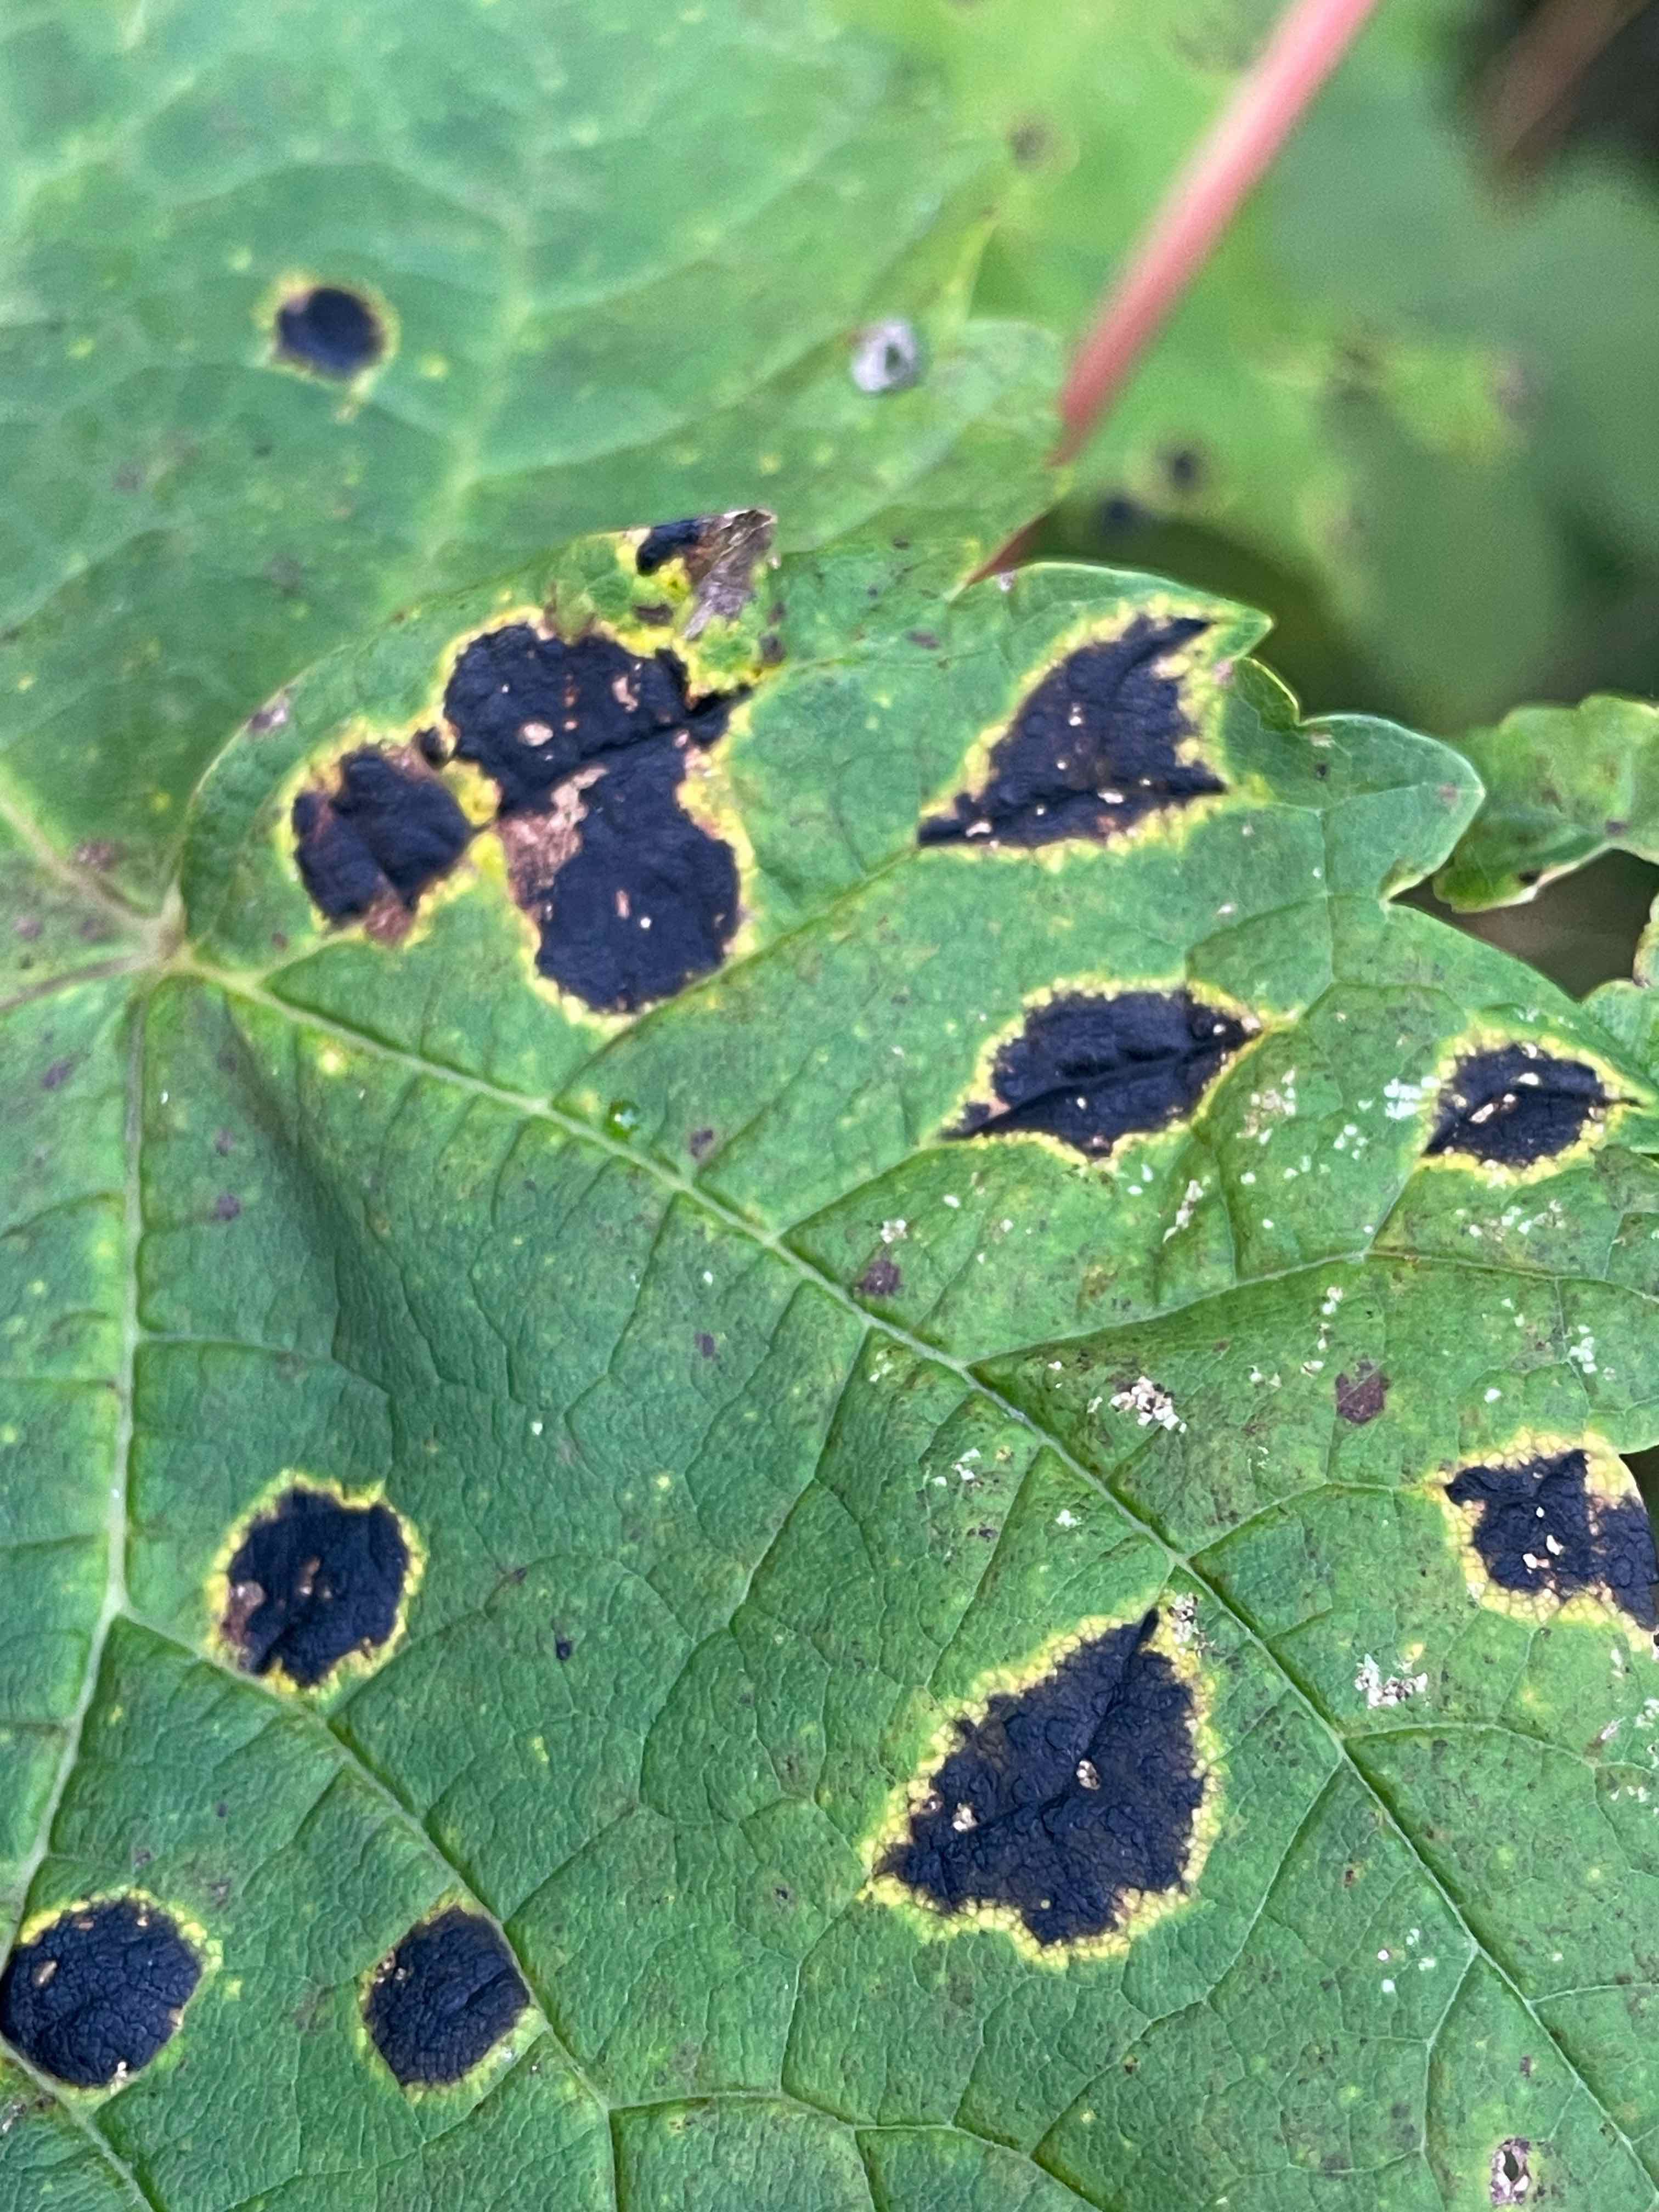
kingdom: Fungi
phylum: Ascomycota
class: Leotiomycetes
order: Rhytismatales
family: Rhytismataceae
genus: Rhytisma
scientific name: Rhytisma acerinum
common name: ahorn-rynkeplet
